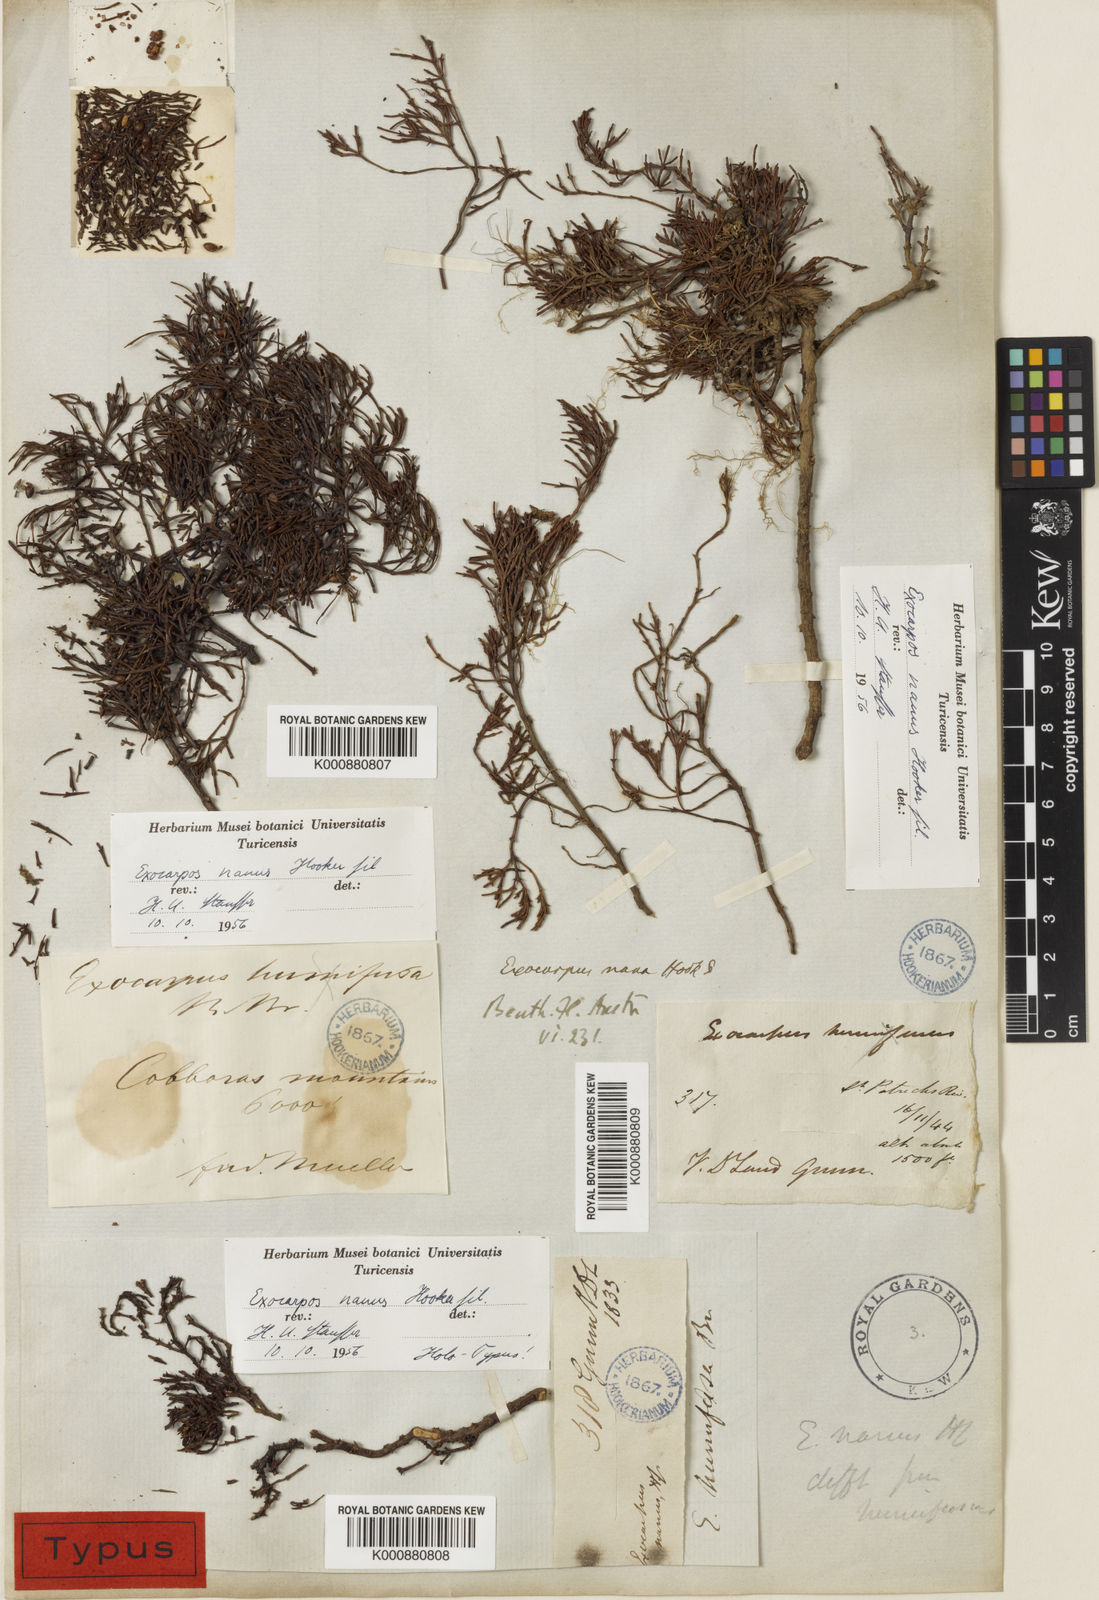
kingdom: Plantae
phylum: Tracheophyta
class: Magnoliopsida
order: Santalales
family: Santalaceae
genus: Exocarpos
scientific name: Exocarpos nanus
